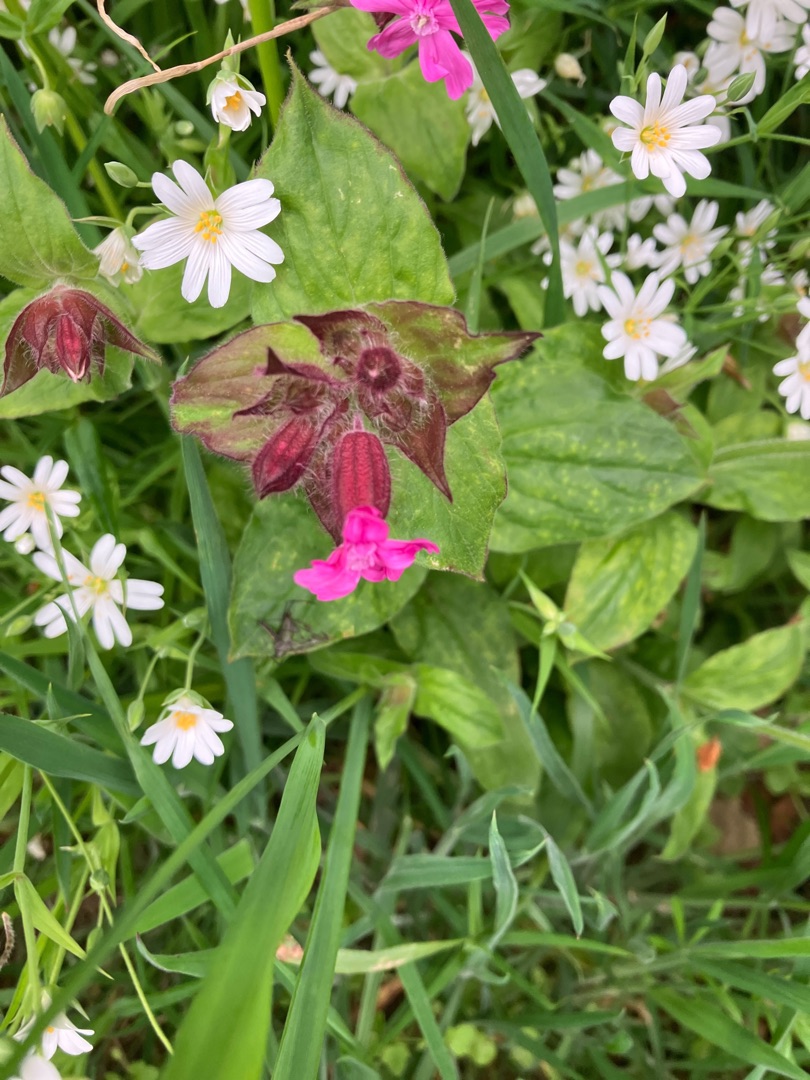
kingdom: Plantae
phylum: Tracheophyta
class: Magnoliopsida
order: Caryophyllales
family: Caryophyllaceae
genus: Silene
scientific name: Silene dioica
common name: Dagpragtstjerne
